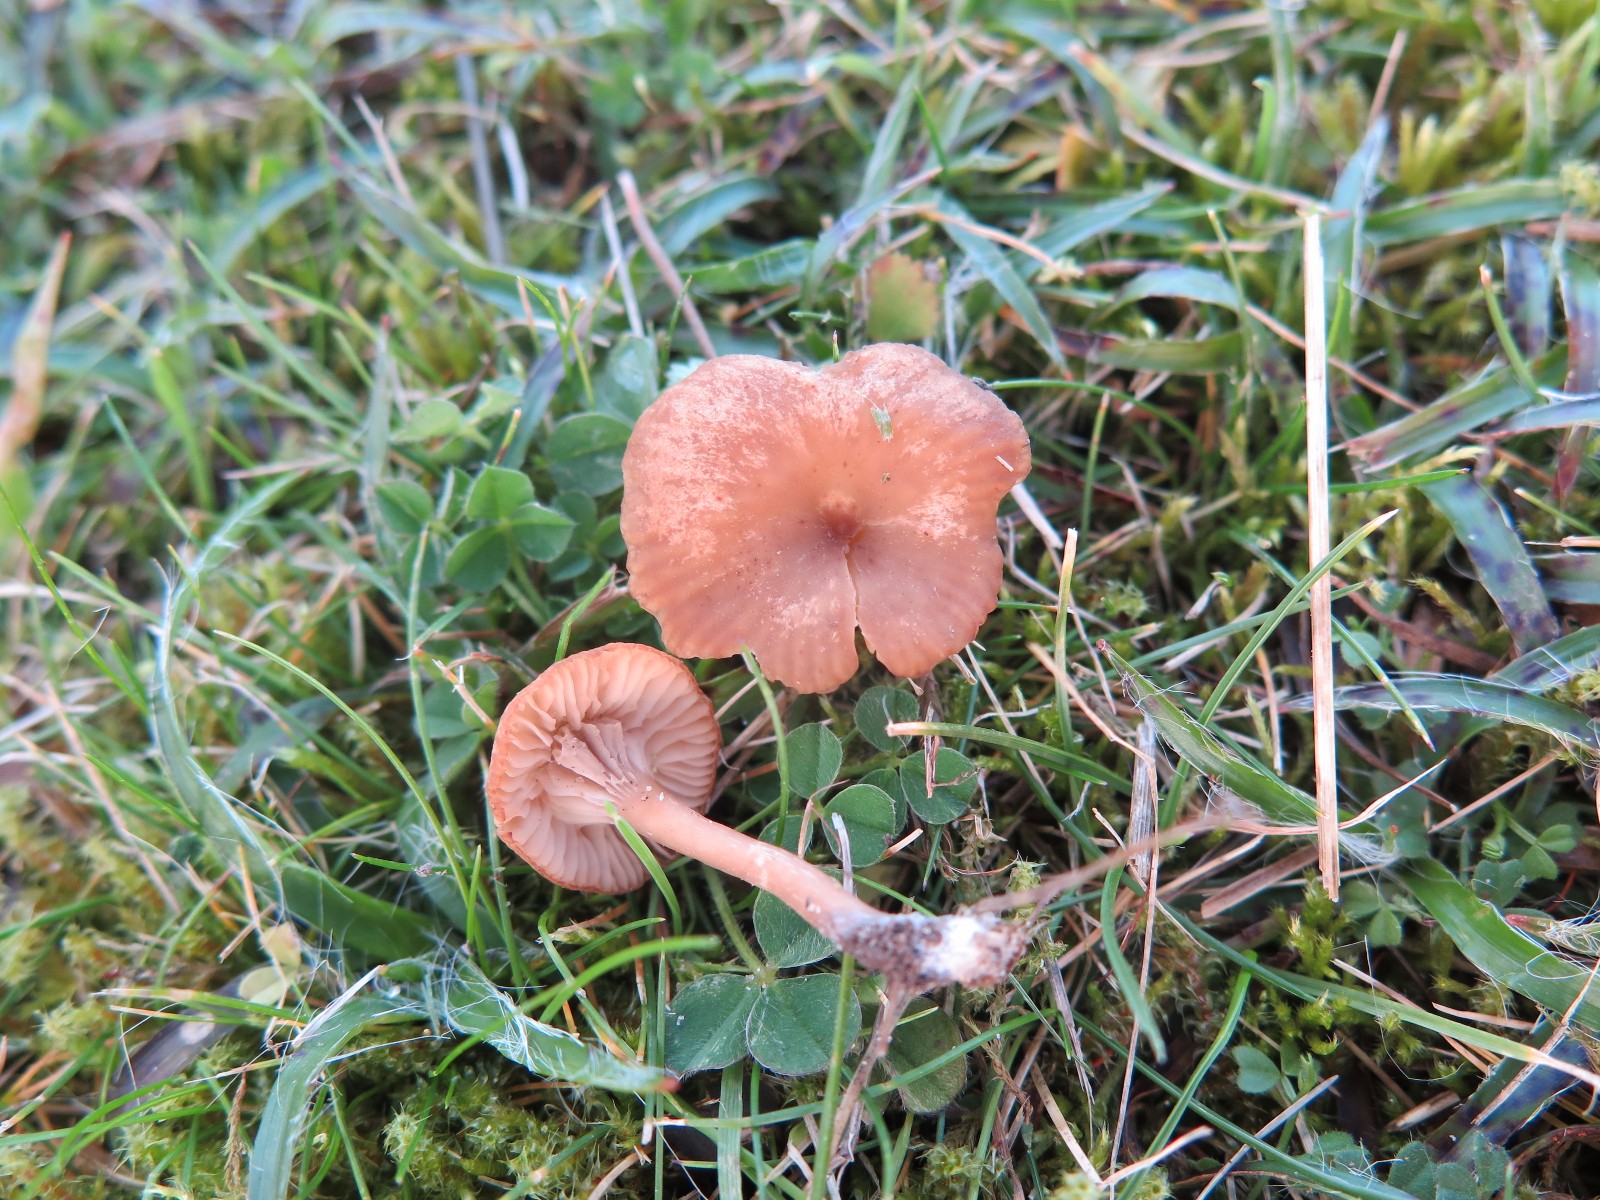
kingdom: Fungi
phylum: Basidiomycota
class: Agaricomycetes
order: Agaricales
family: Tricholomataceae
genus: Omphalina
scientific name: Omphalina pyxidata
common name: rødbrun navlehat
